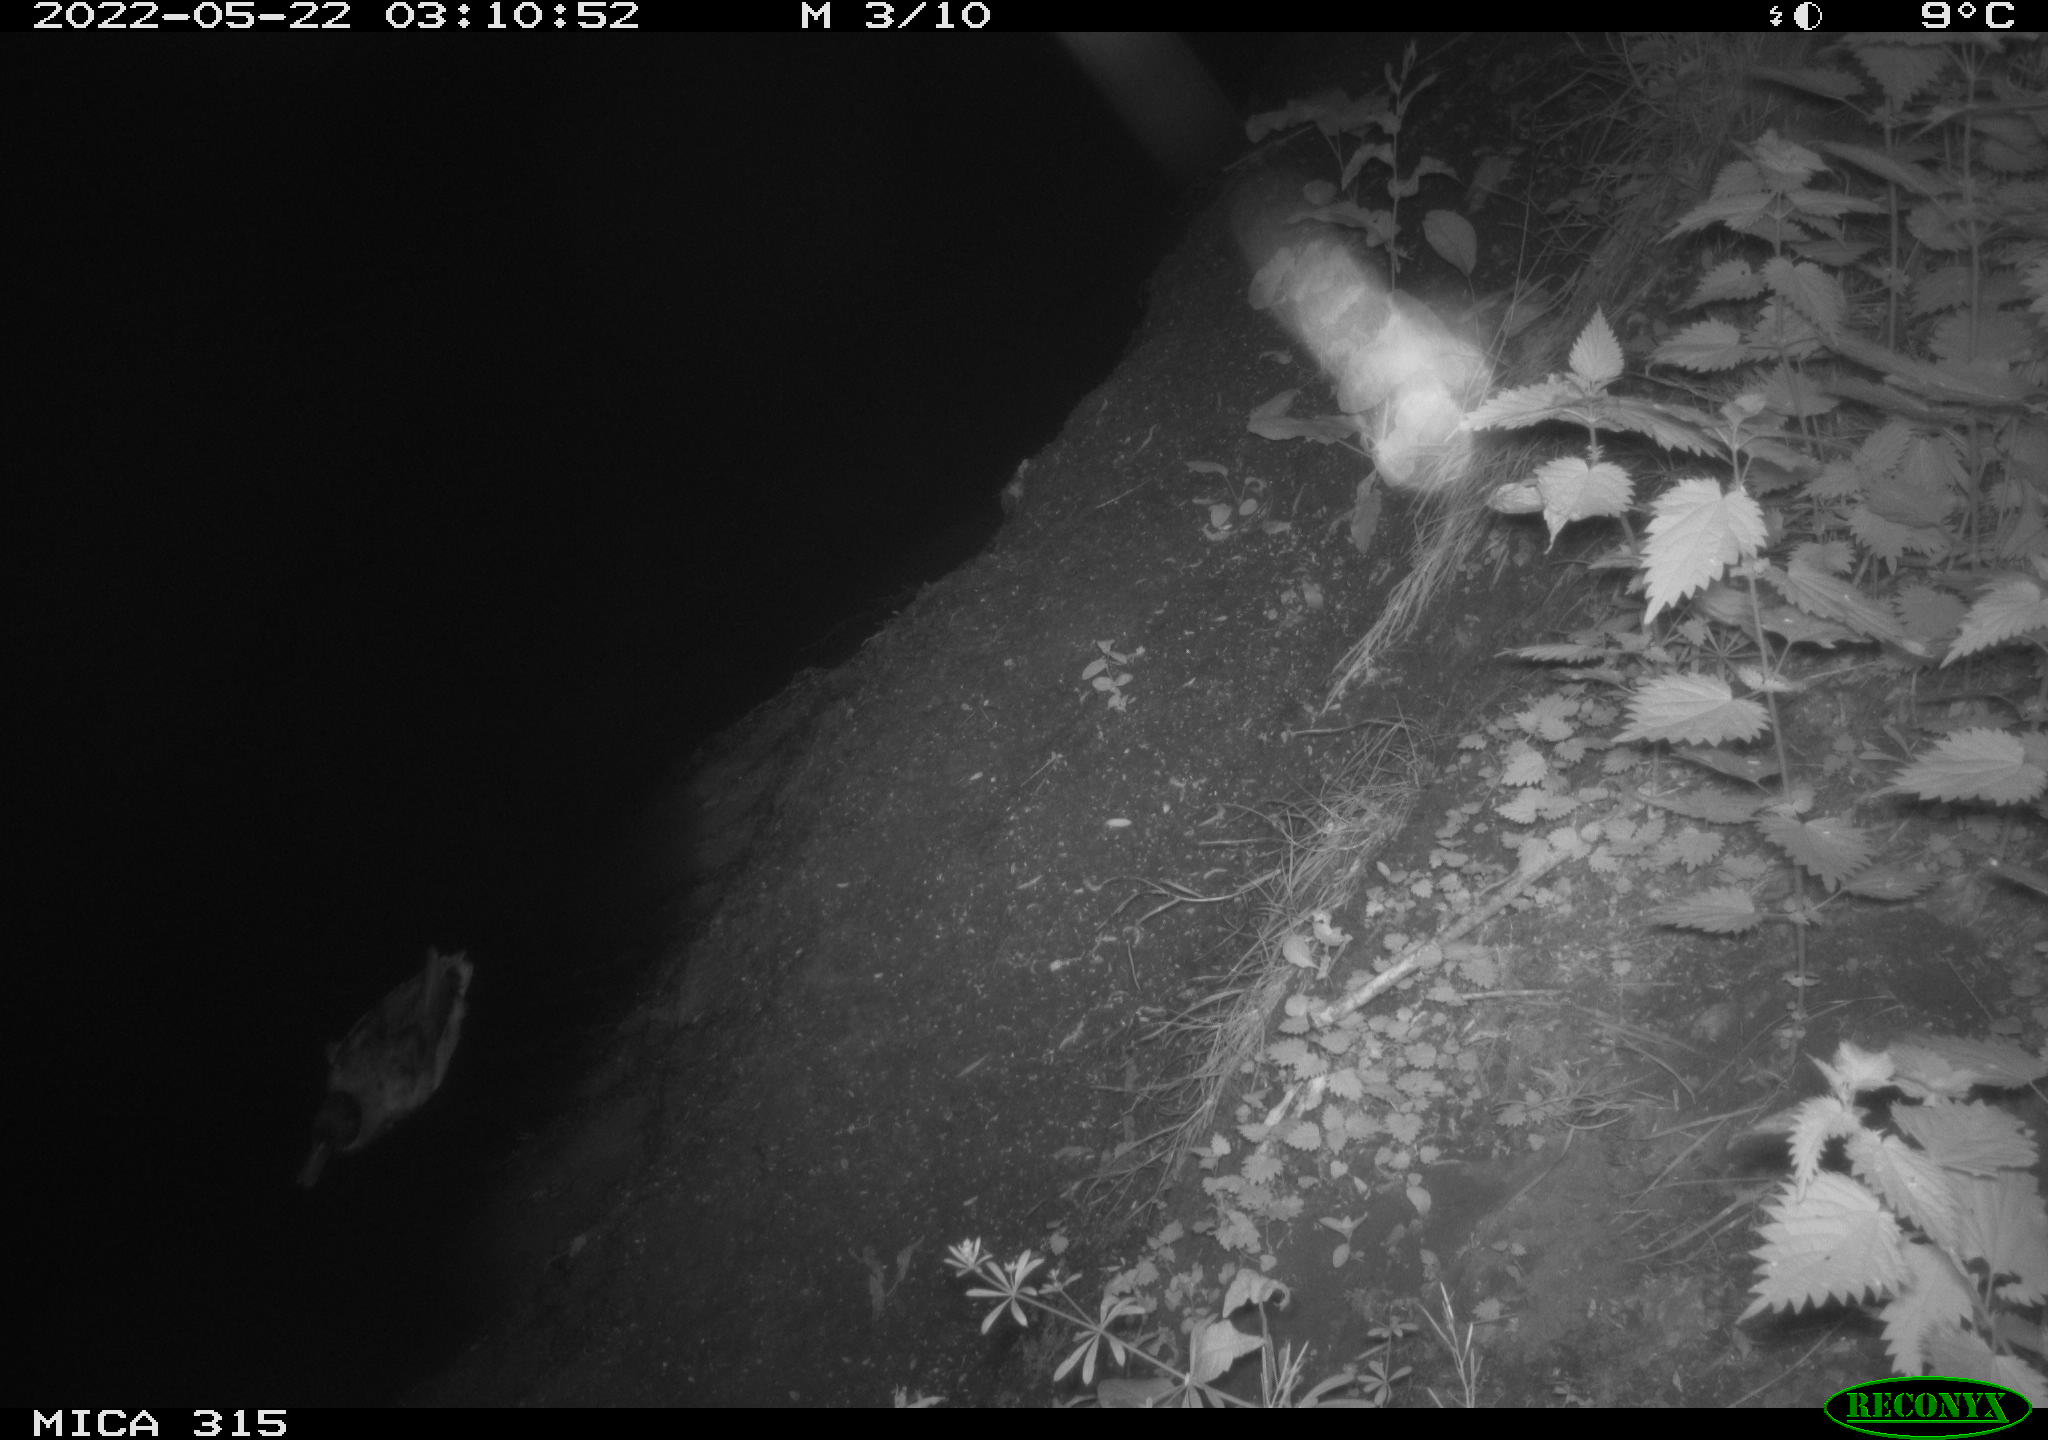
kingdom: Animalia
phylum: Chordata
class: Aves
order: Anseriformes
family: Anatidae
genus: Anas
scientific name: Anas
